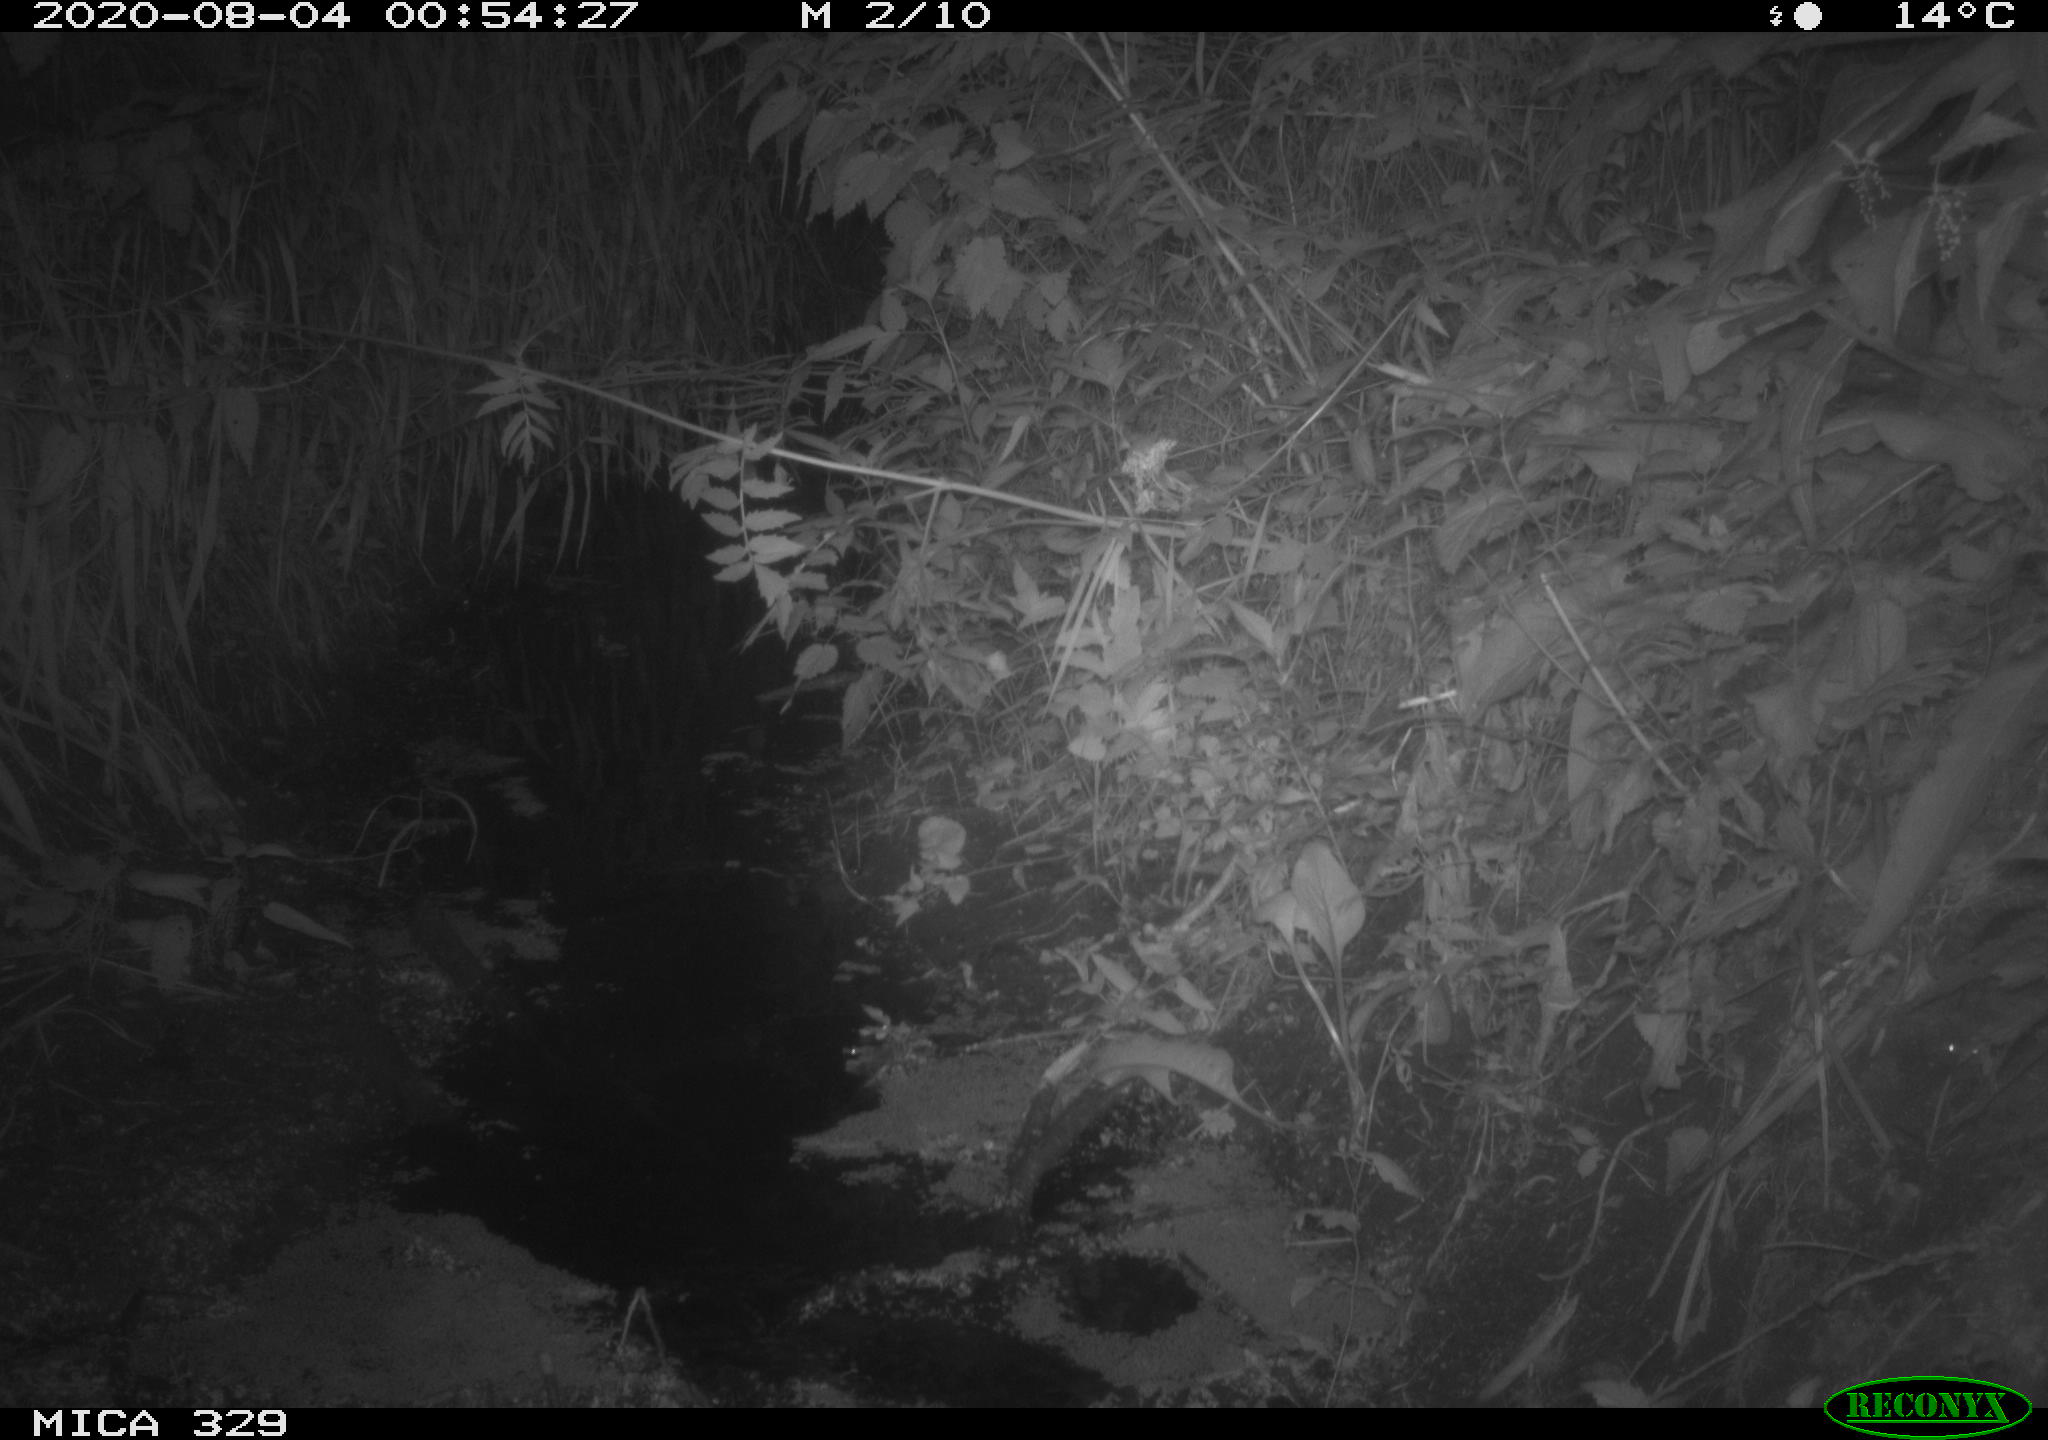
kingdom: Animalia
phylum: Chordata
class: Mammalia
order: Rodentia
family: Muridae
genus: Rattus
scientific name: Rattus norvegicus
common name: Brown rat
